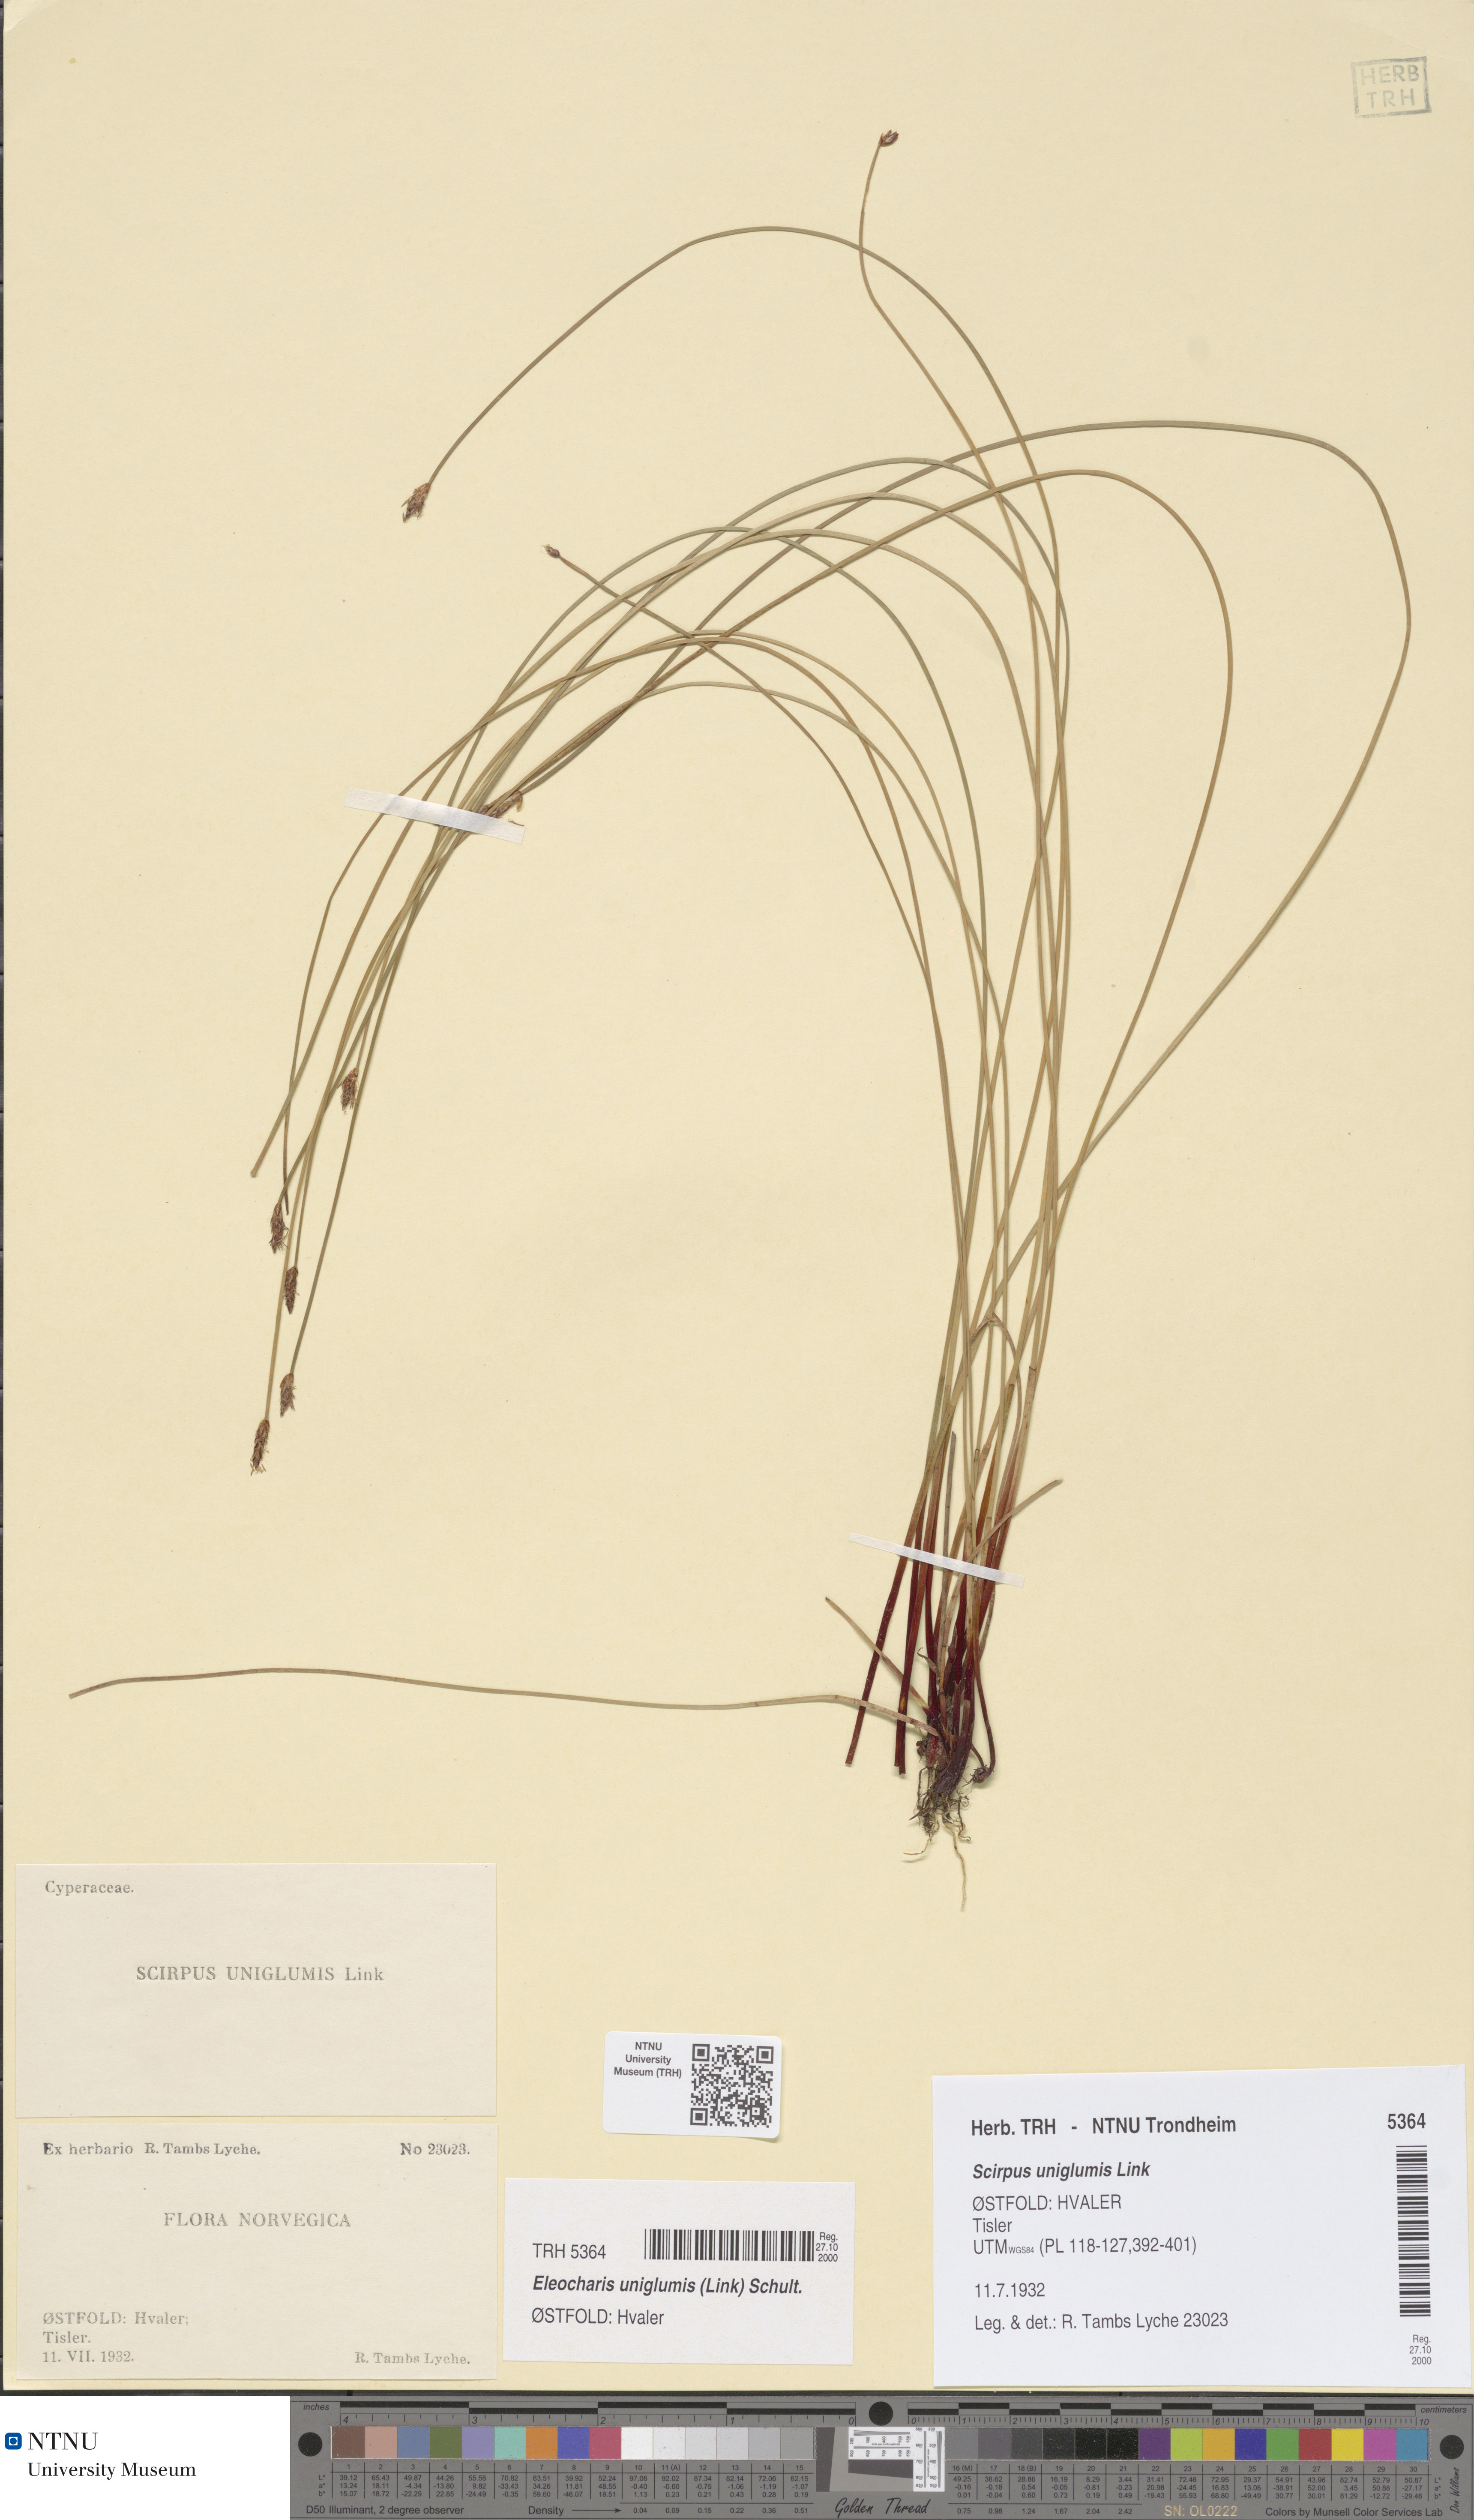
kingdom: Plantae
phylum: Tracheophyta
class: Liliopsida
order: Poales
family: Cyperaceae
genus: Eleocharis
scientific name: Eleocharis uniglumis
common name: Slender spike-rush
